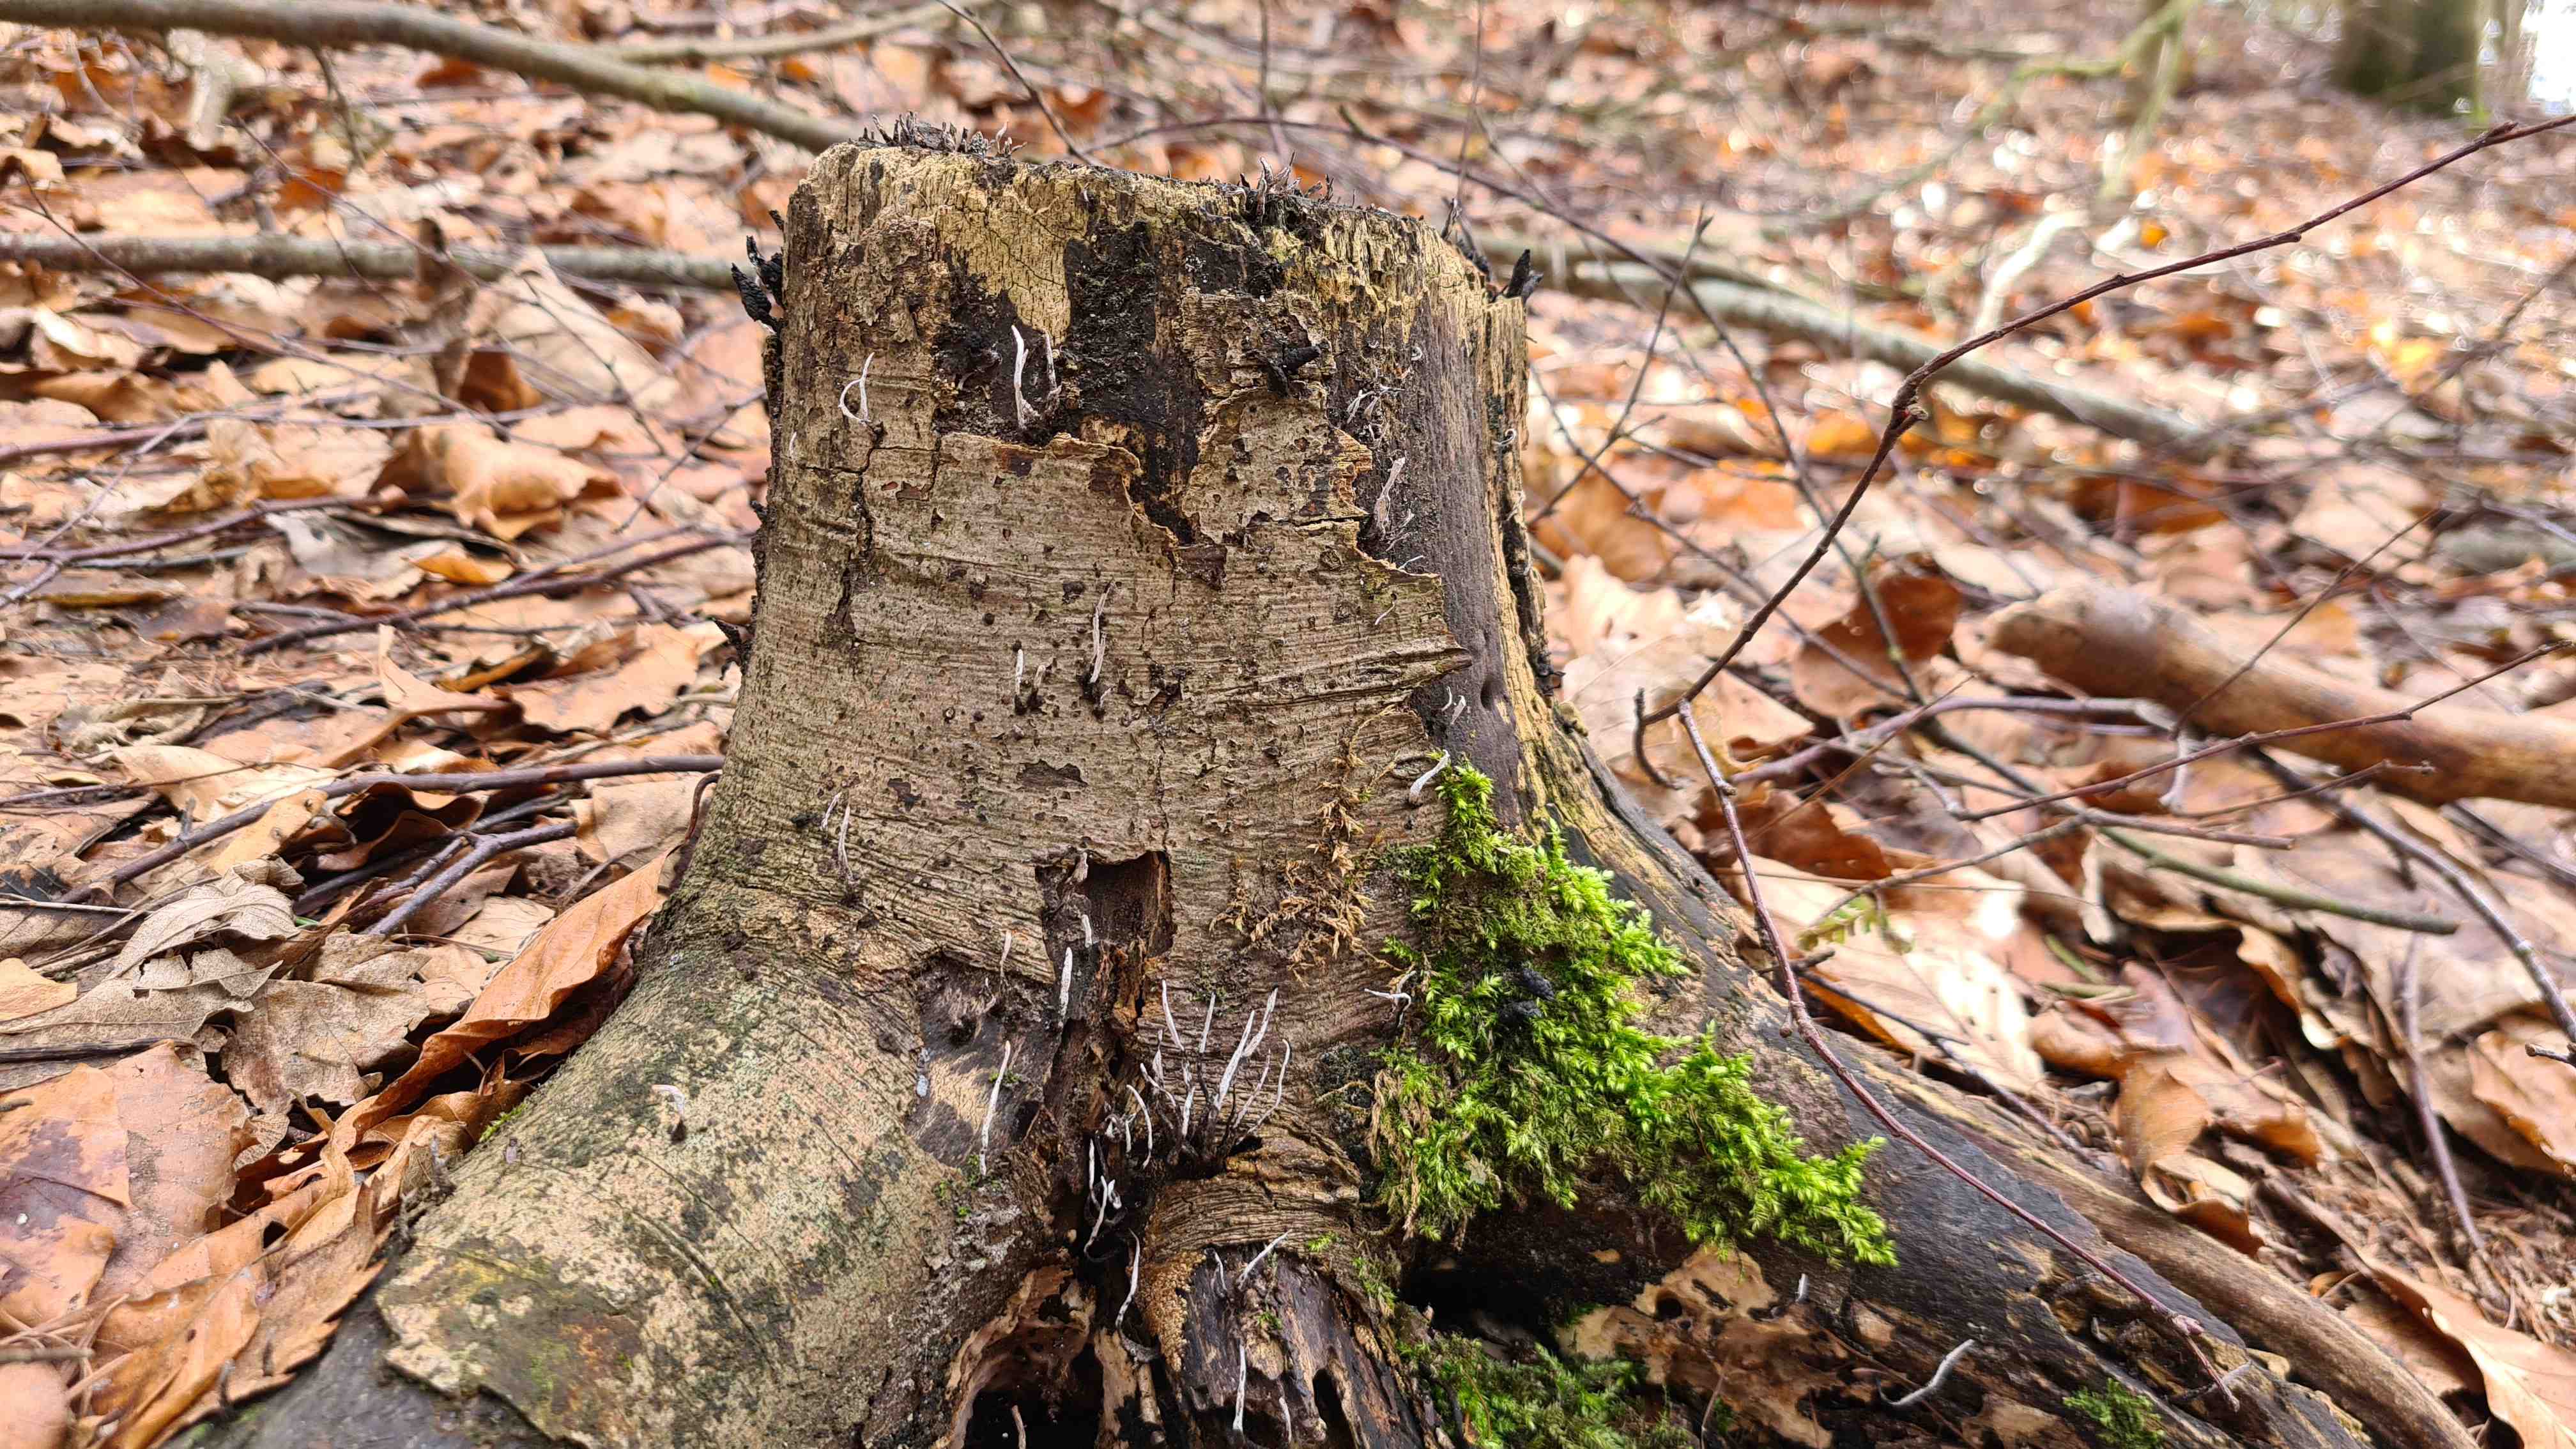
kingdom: Fungi
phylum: Ascomycota
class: Sordariomycetes
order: Xylariales
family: Xylariaceae
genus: Xylaria
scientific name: Xylaria hypoxylon
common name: grenet stødsvamp
